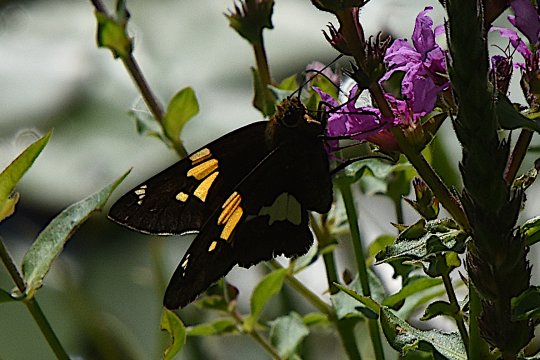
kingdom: Animalia
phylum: Arthropoda
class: Insecta
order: Lepidoptera
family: Hesperiidae
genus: Epargyreus
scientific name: Epargyreus clarus
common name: Silver-spotted Skipper
